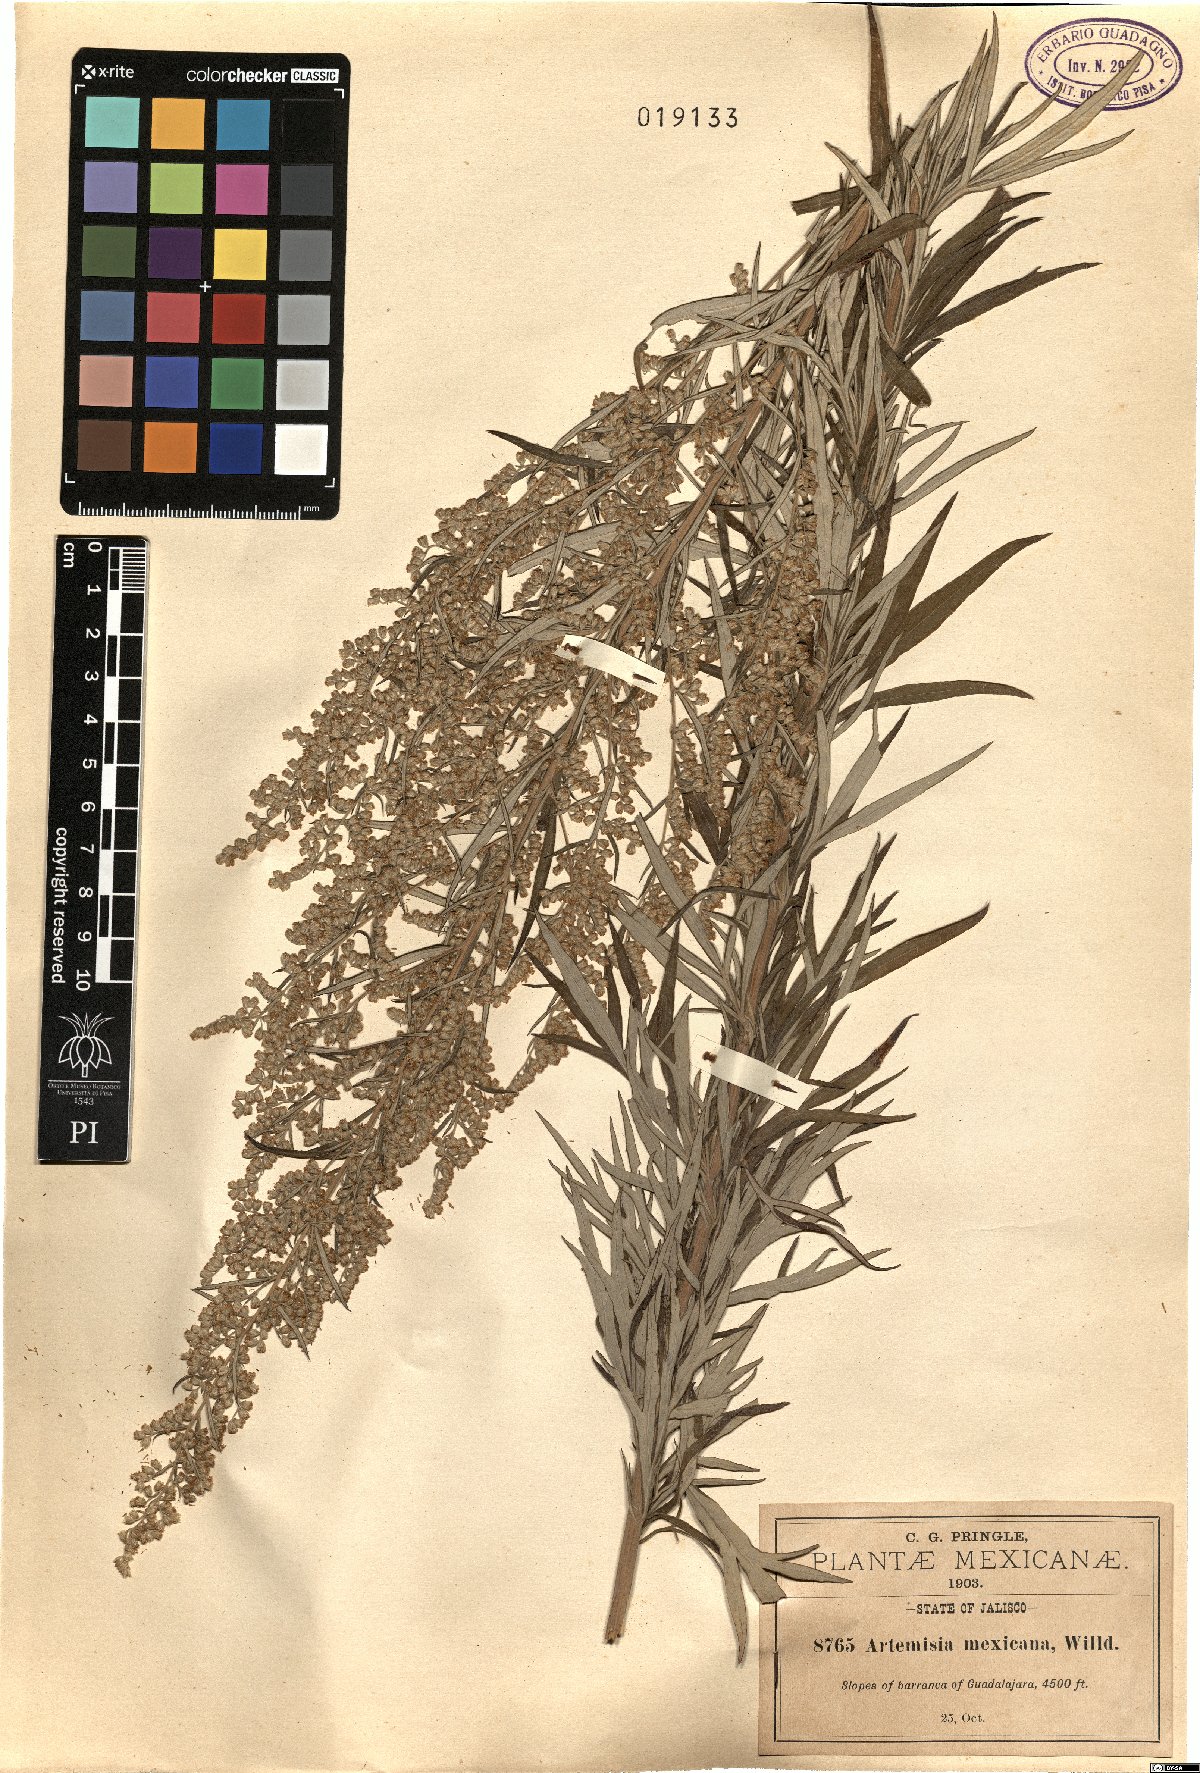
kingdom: Plantae
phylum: Tracheophyta
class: Magnoliopsida
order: Asterales
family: Asteraceae
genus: Artemisia
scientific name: Artemisia ludoviciana
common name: Western mugwort
